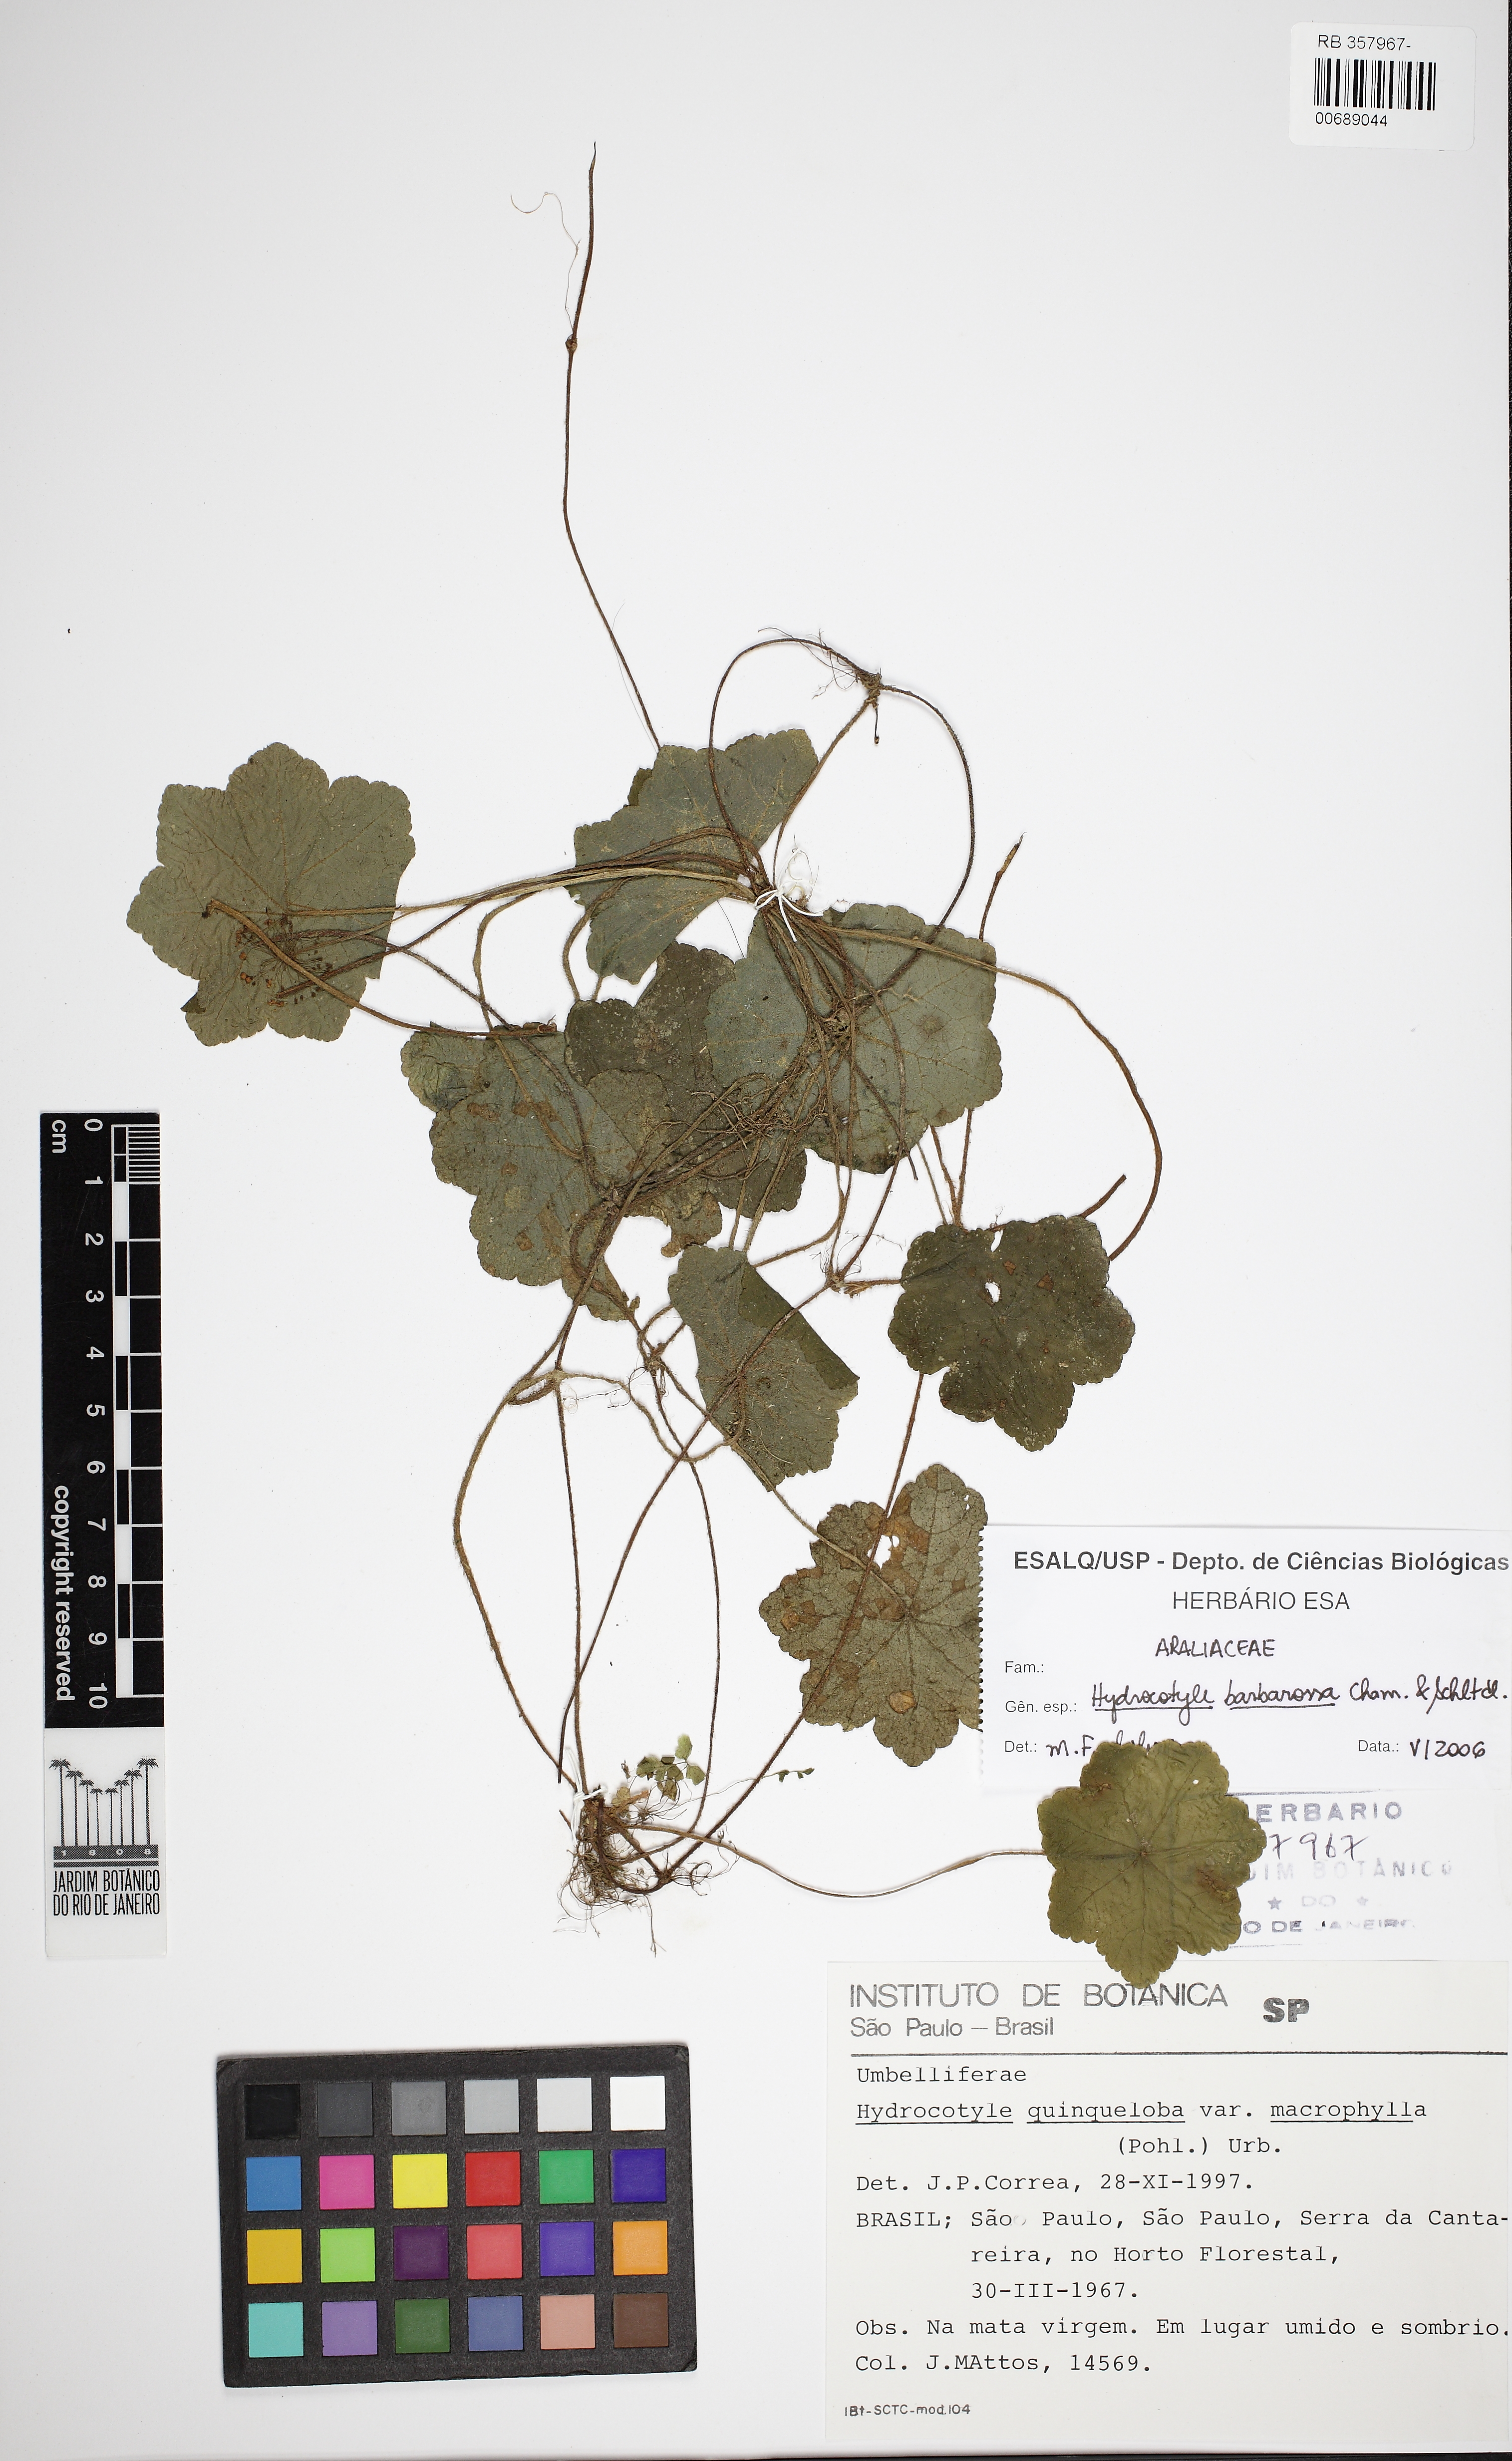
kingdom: Plantae
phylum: Tracheophyta
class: Magnoliopsida
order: Apiales
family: Araliaceae
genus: Hydrocotyle
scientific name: Hydrocotyle barbarossa
